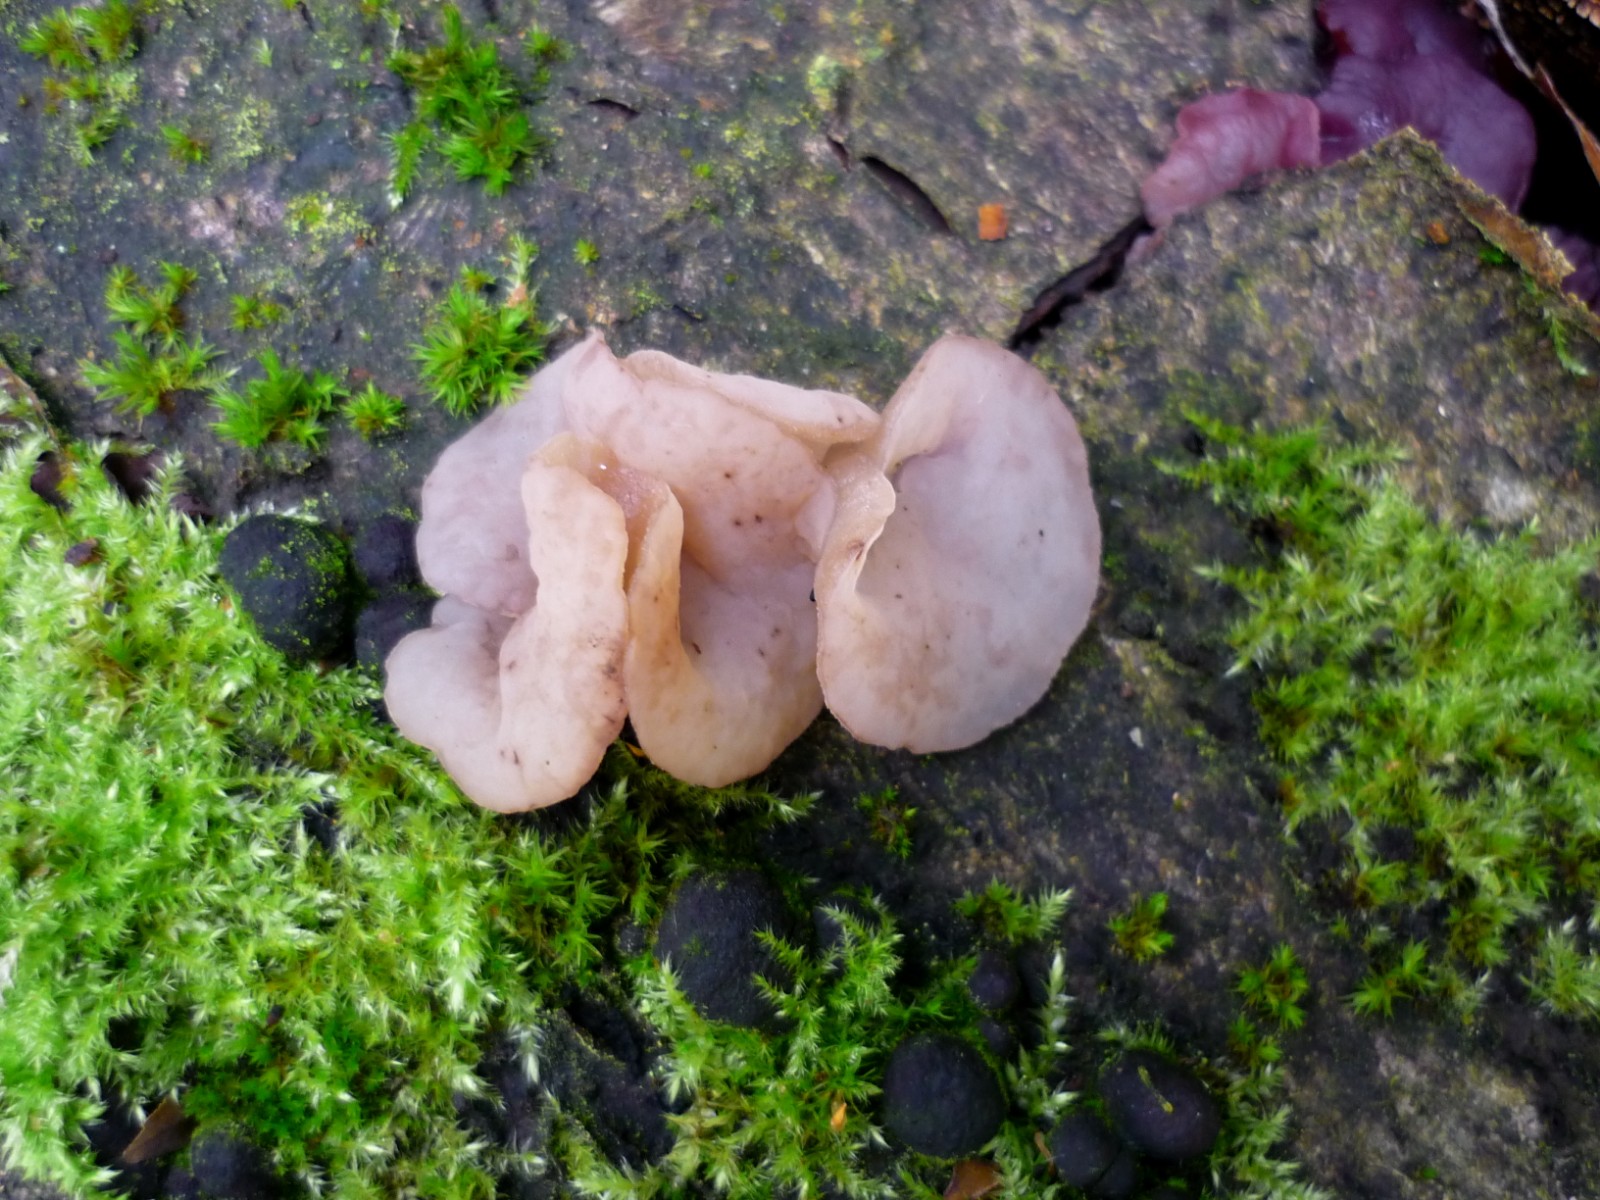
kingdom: Fungi
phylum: Ascomycota
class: Leotiomycetes
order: Helotiales
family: Gelatinodiscaceae
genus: Neobulgaria
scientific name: Neobulgaria pura
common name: bleg bævreskive
